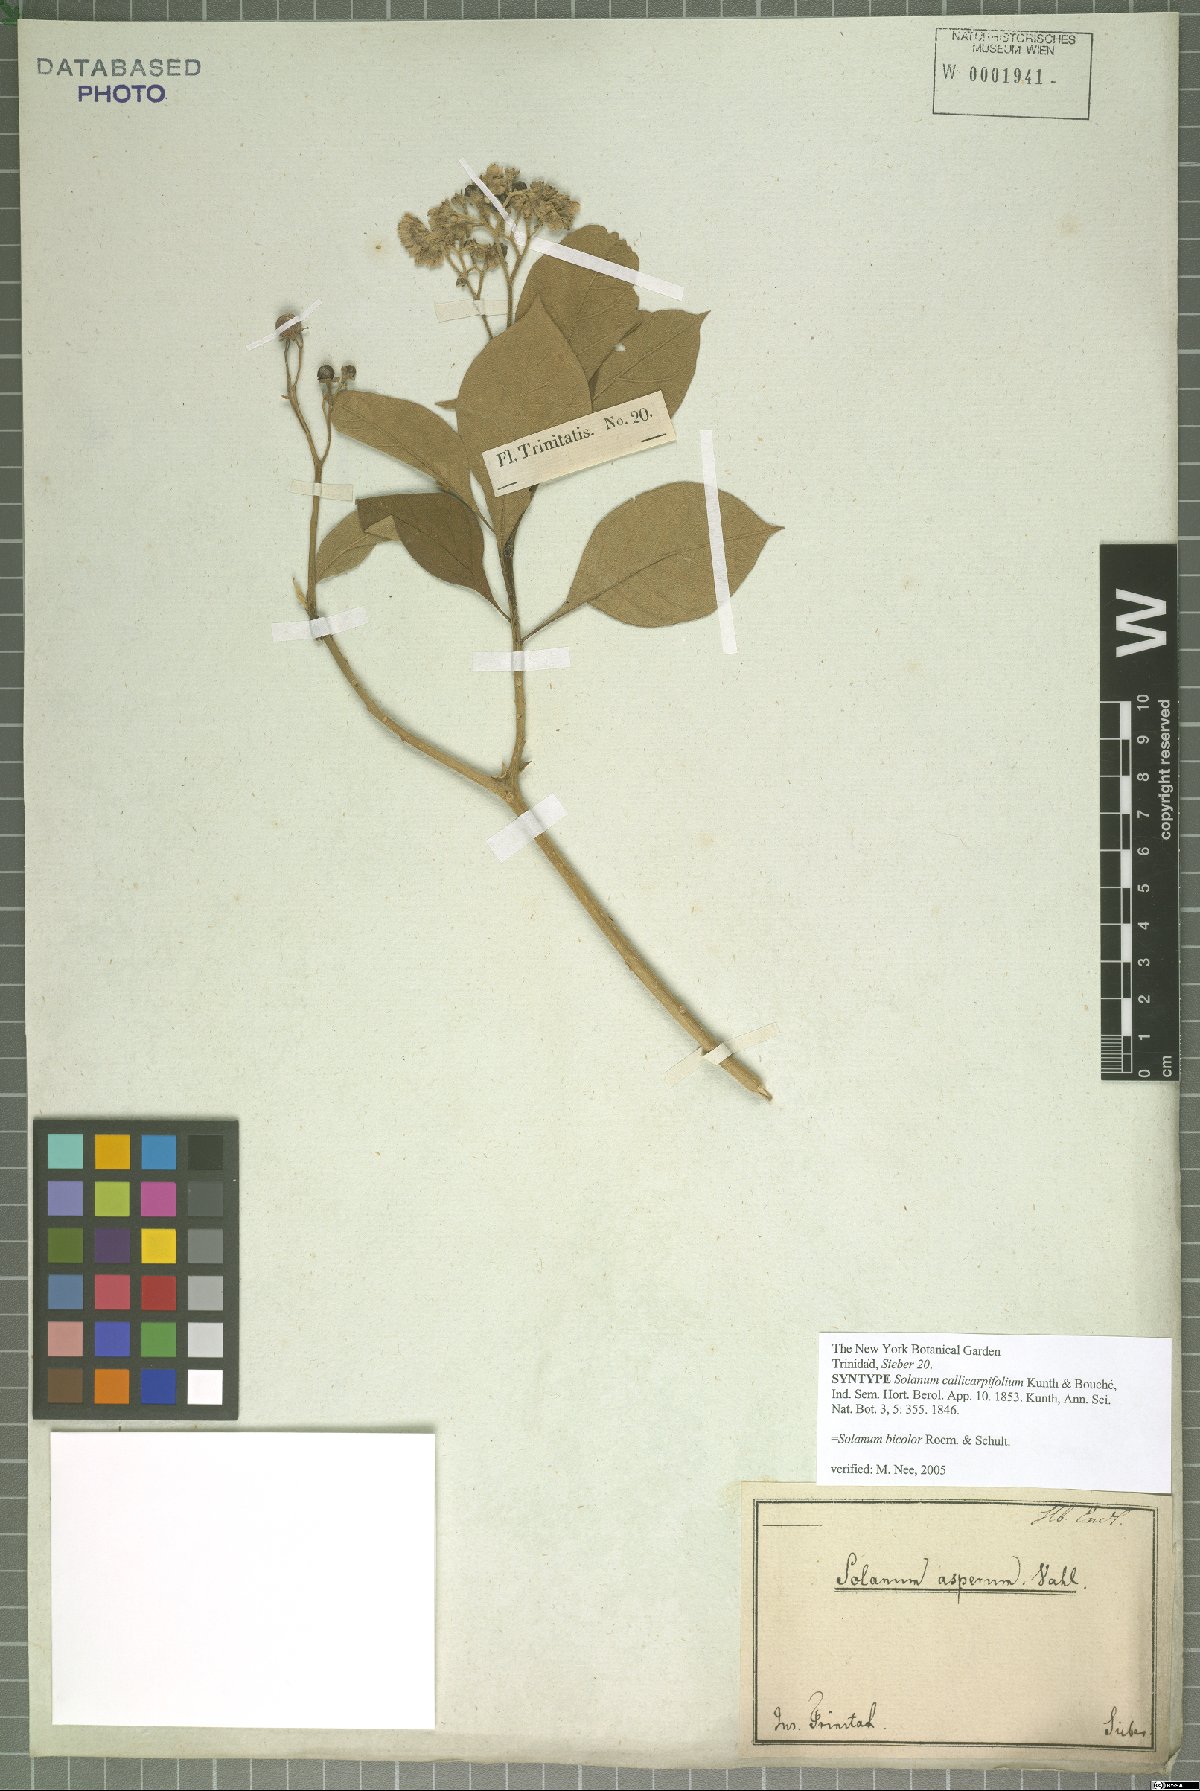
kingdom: Plantae
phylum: Tracheophyta
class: Magnoliopsida
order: Solanales
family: Solanaceae
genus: Solanum
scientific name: Solanum bicolor
